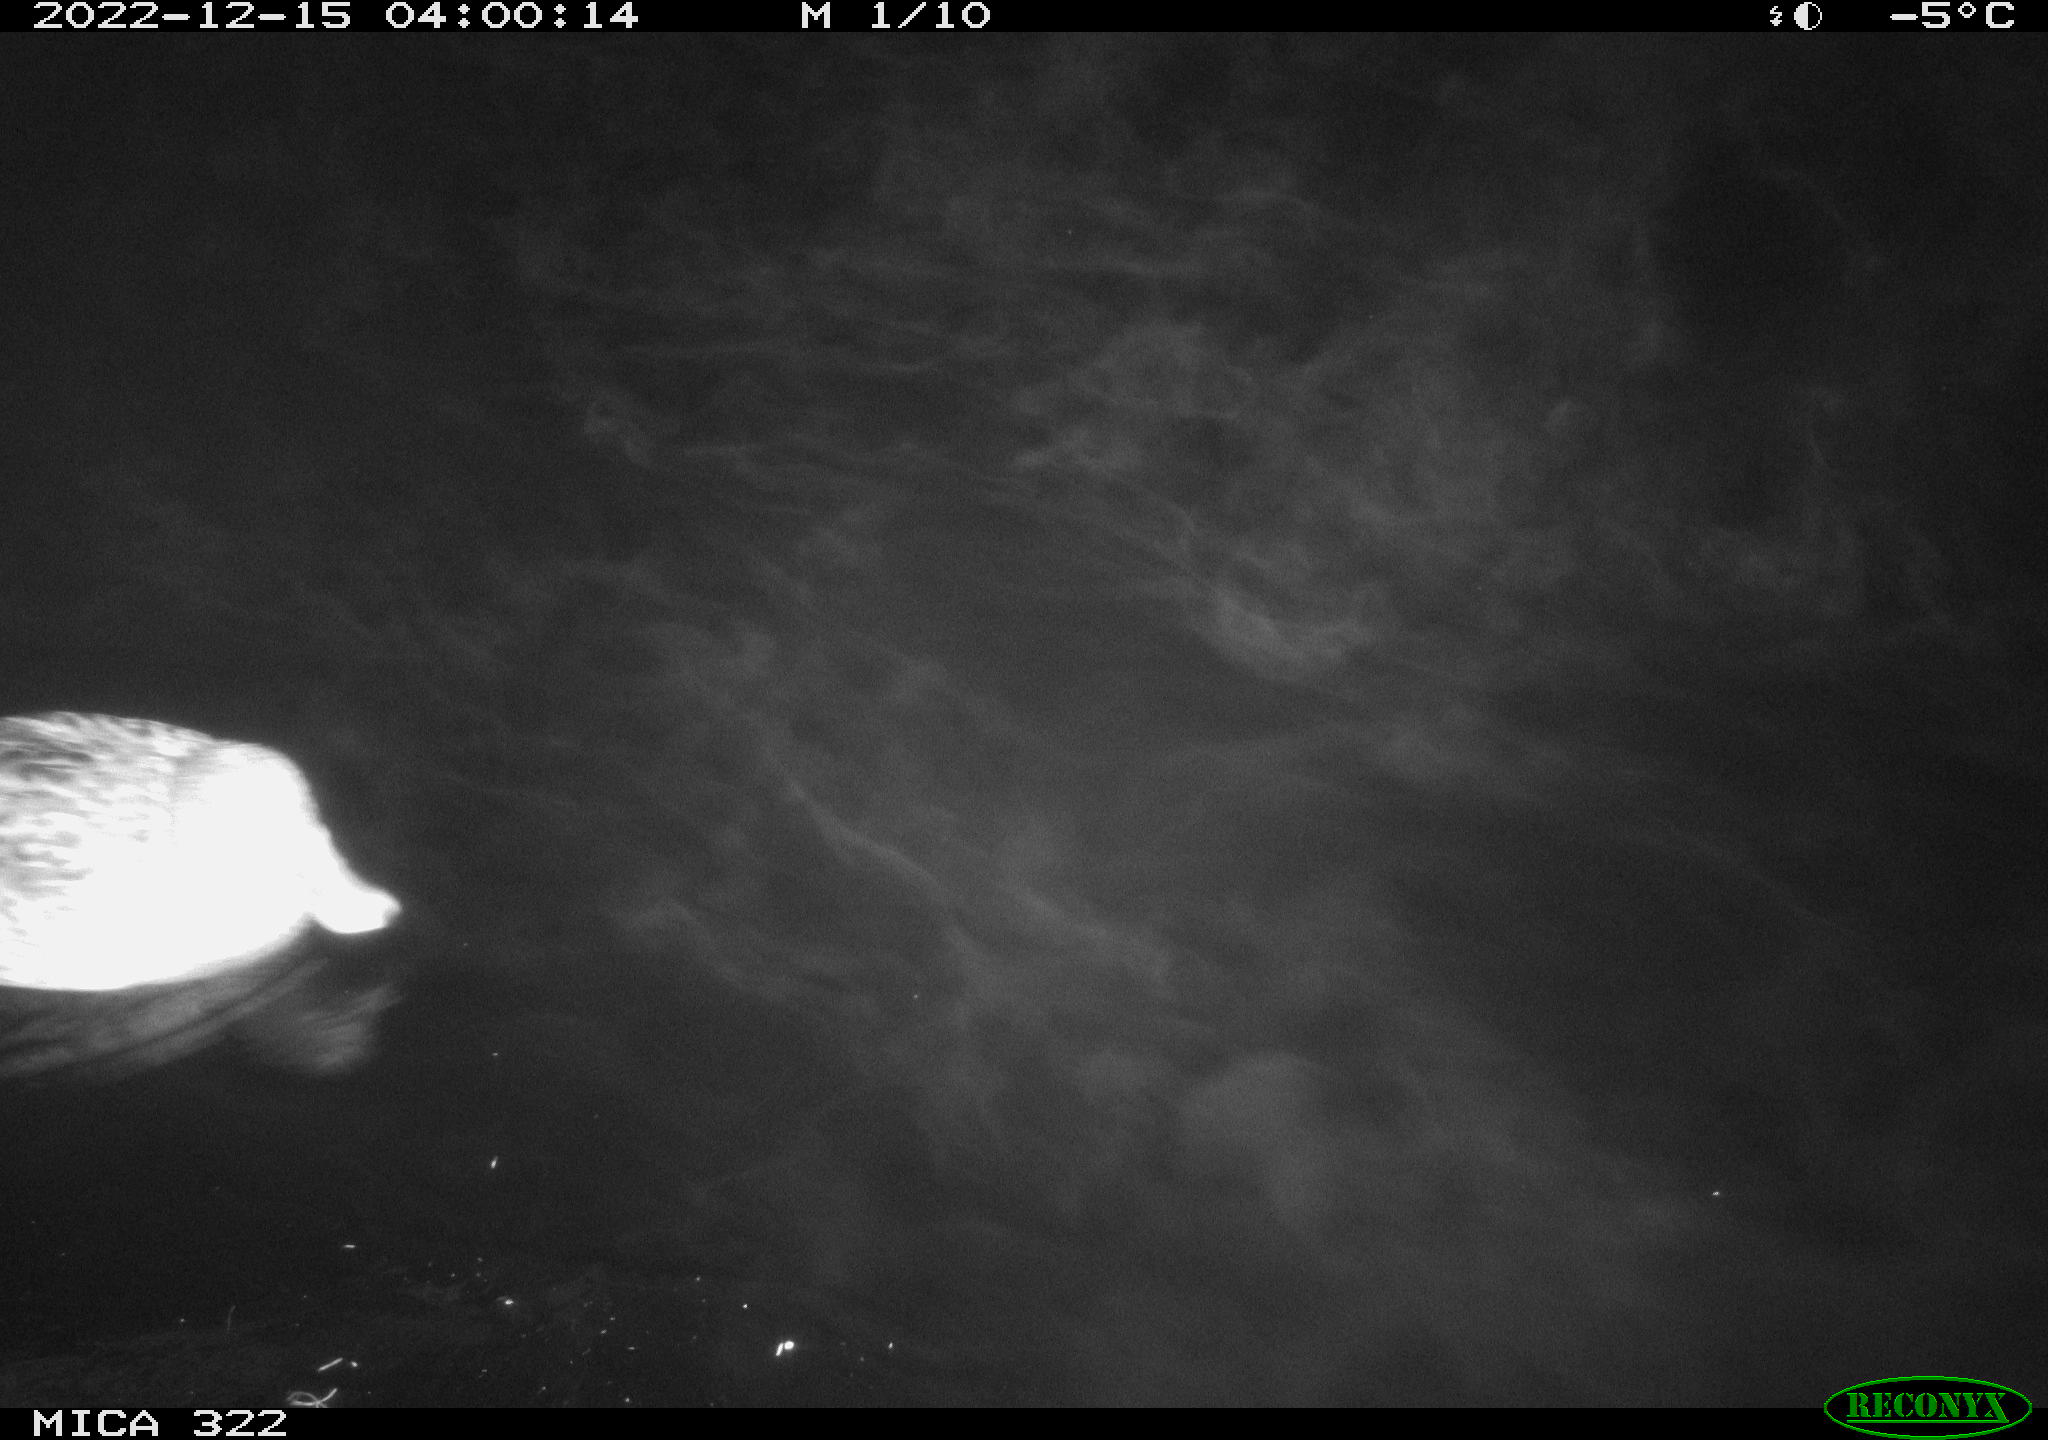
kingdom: Animalia
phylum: Chordata
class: Aves
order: Anseriformes
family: Anatidae
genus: Anas
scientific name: Anas
